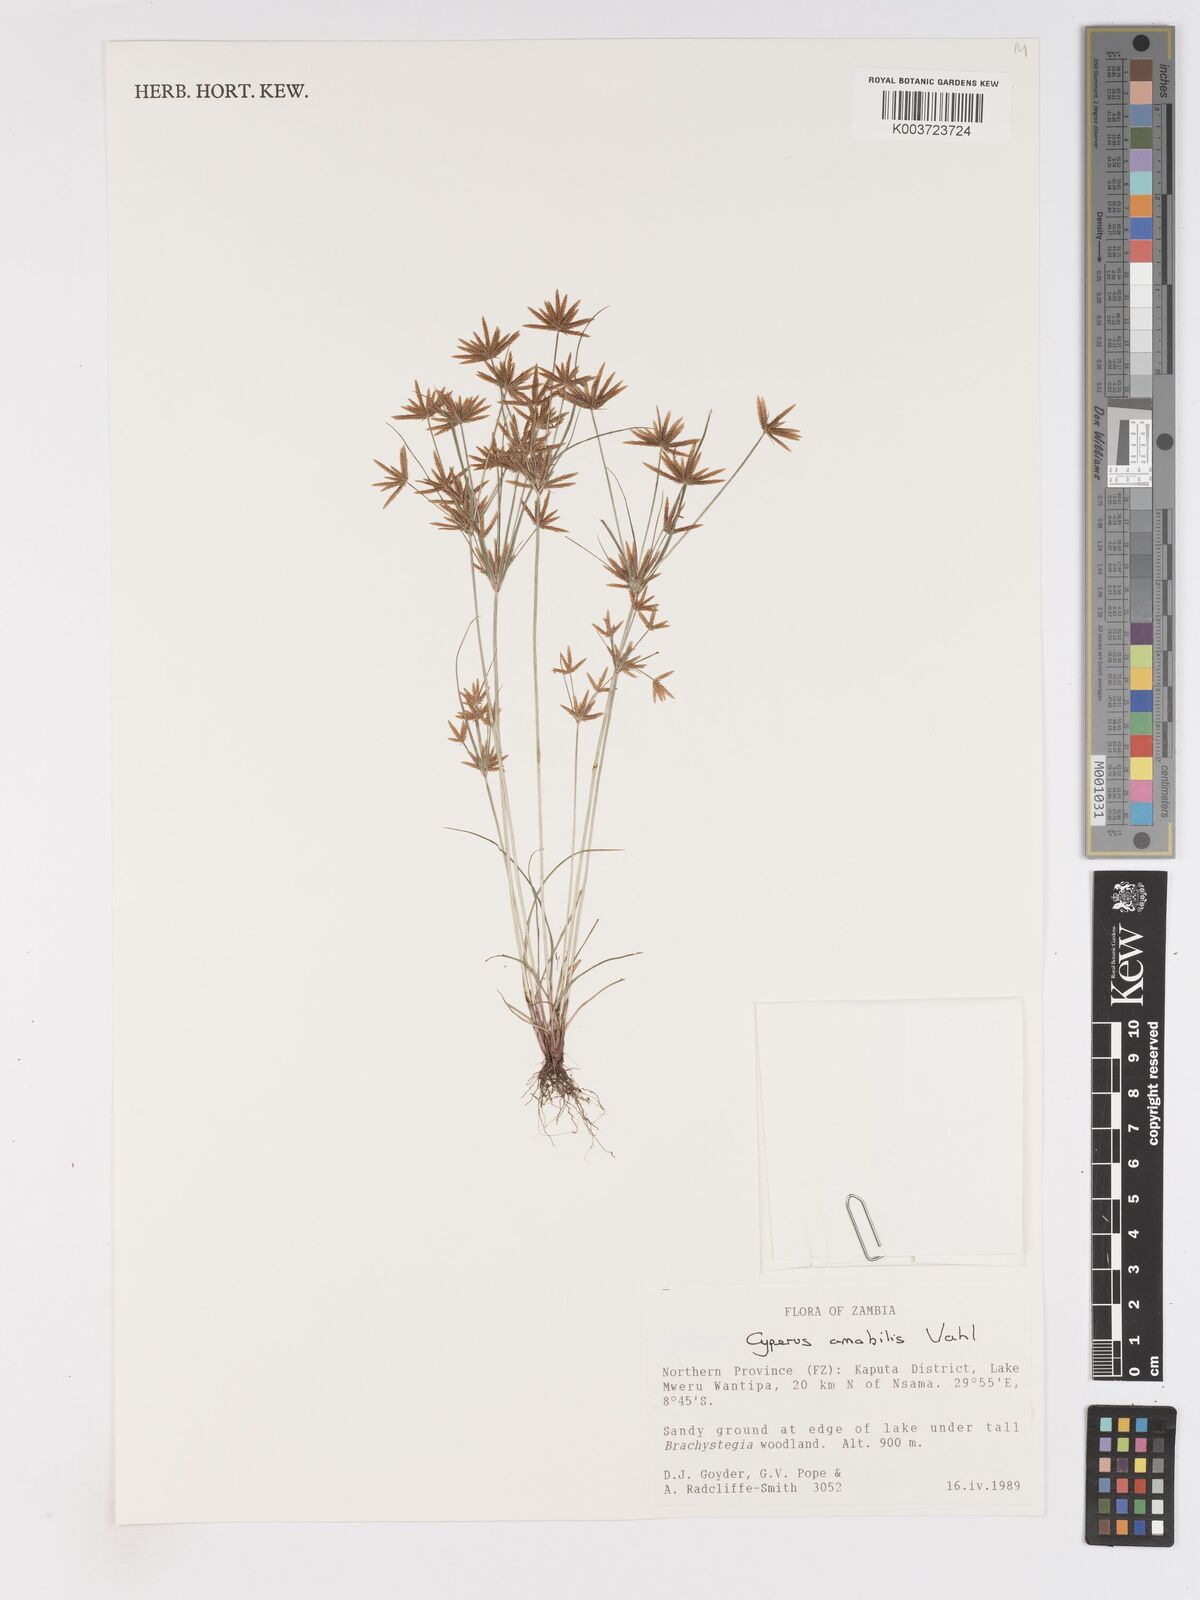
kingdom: Plantae
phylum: Tracheophyta
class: Liliopsida
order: Poales
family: Cyperaceae
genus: Cyperus
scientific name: Cyperus amabilis
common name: Foothill flat sedge
